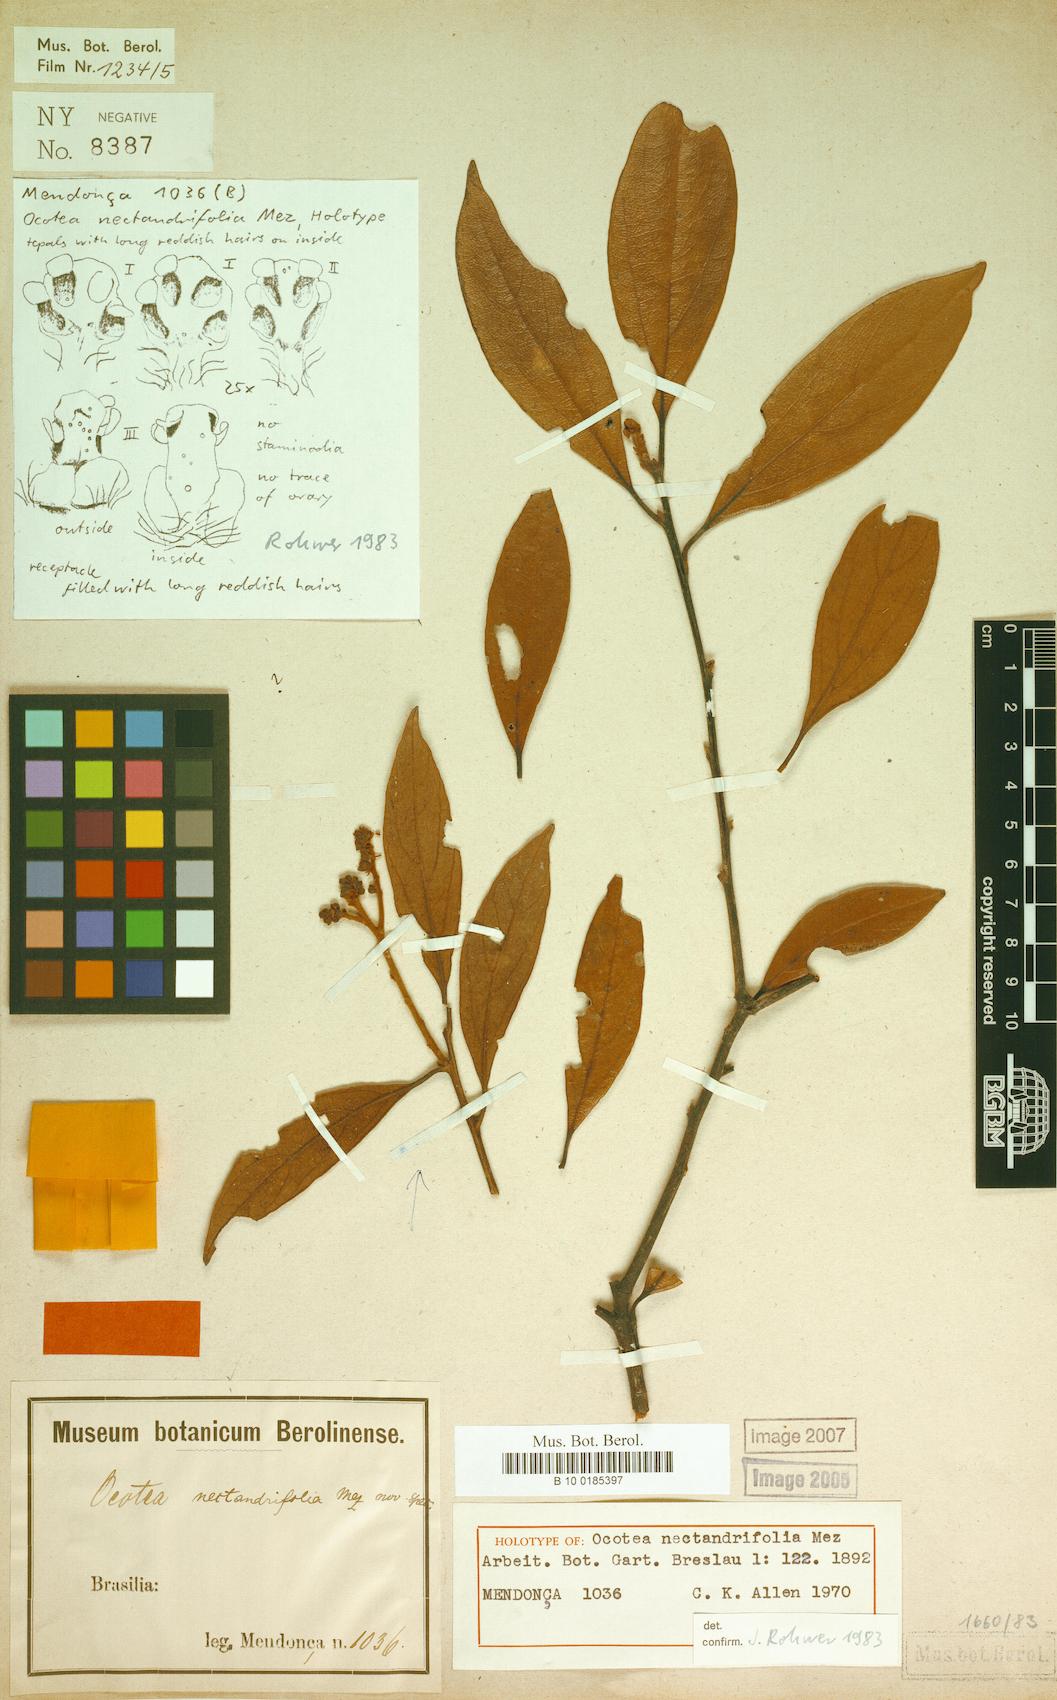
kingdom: Plantae
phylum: Tracheophyta
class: Magnoliopsida
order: Laurales
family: Lauraceae
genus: Ocotea
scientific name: Ocotea nectandrifolia
